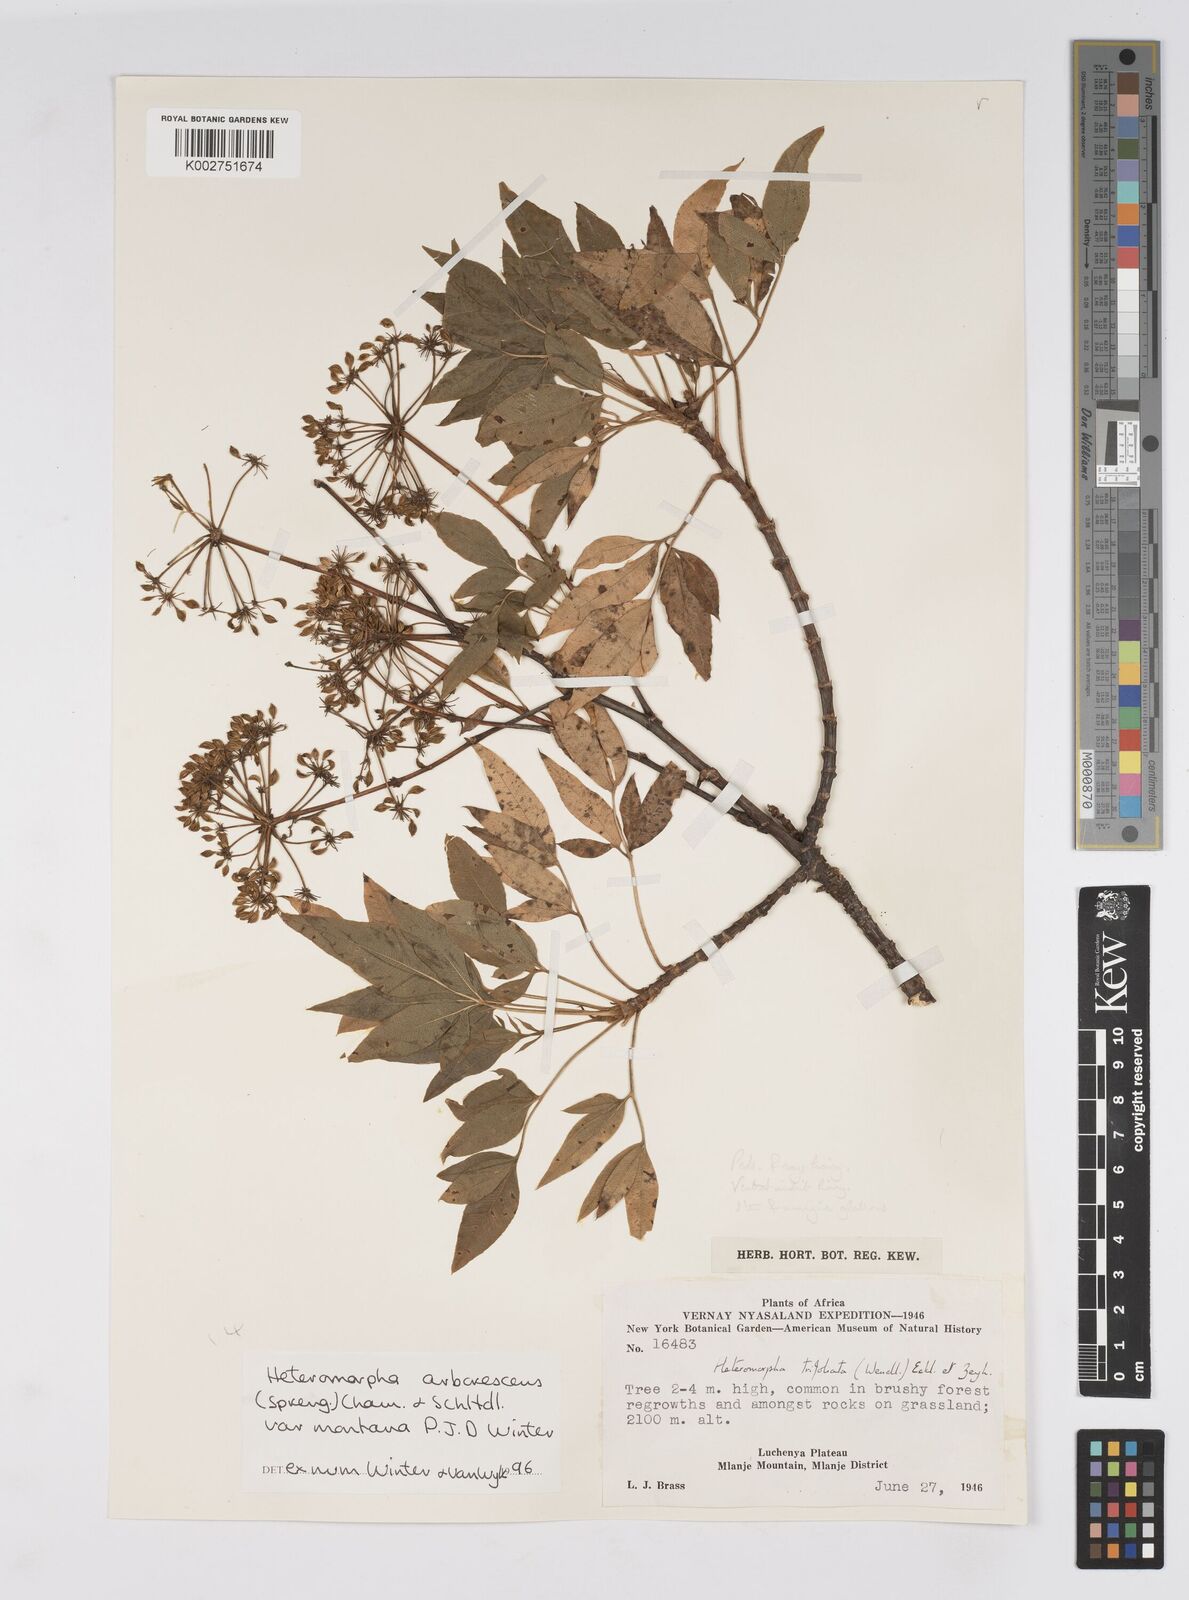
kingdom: Plantae
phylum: Tracheophyta
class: Magnoliopsida
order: Apiales
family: Apiaceae
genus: Heteromorpha
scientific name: Heteromorpha montana
